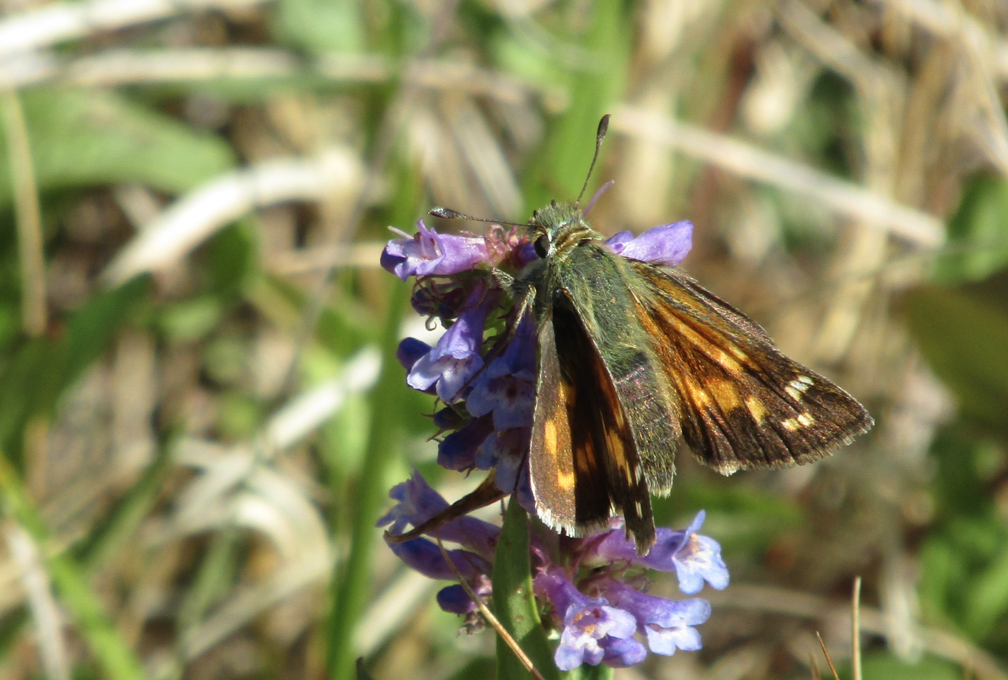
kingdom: Animalia
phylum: Arthropoda
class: Insecta
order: Lepidoptera
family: Hesperiidae
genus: Hesperia
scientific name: Hesperia comma
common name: Common Branded Skipper
